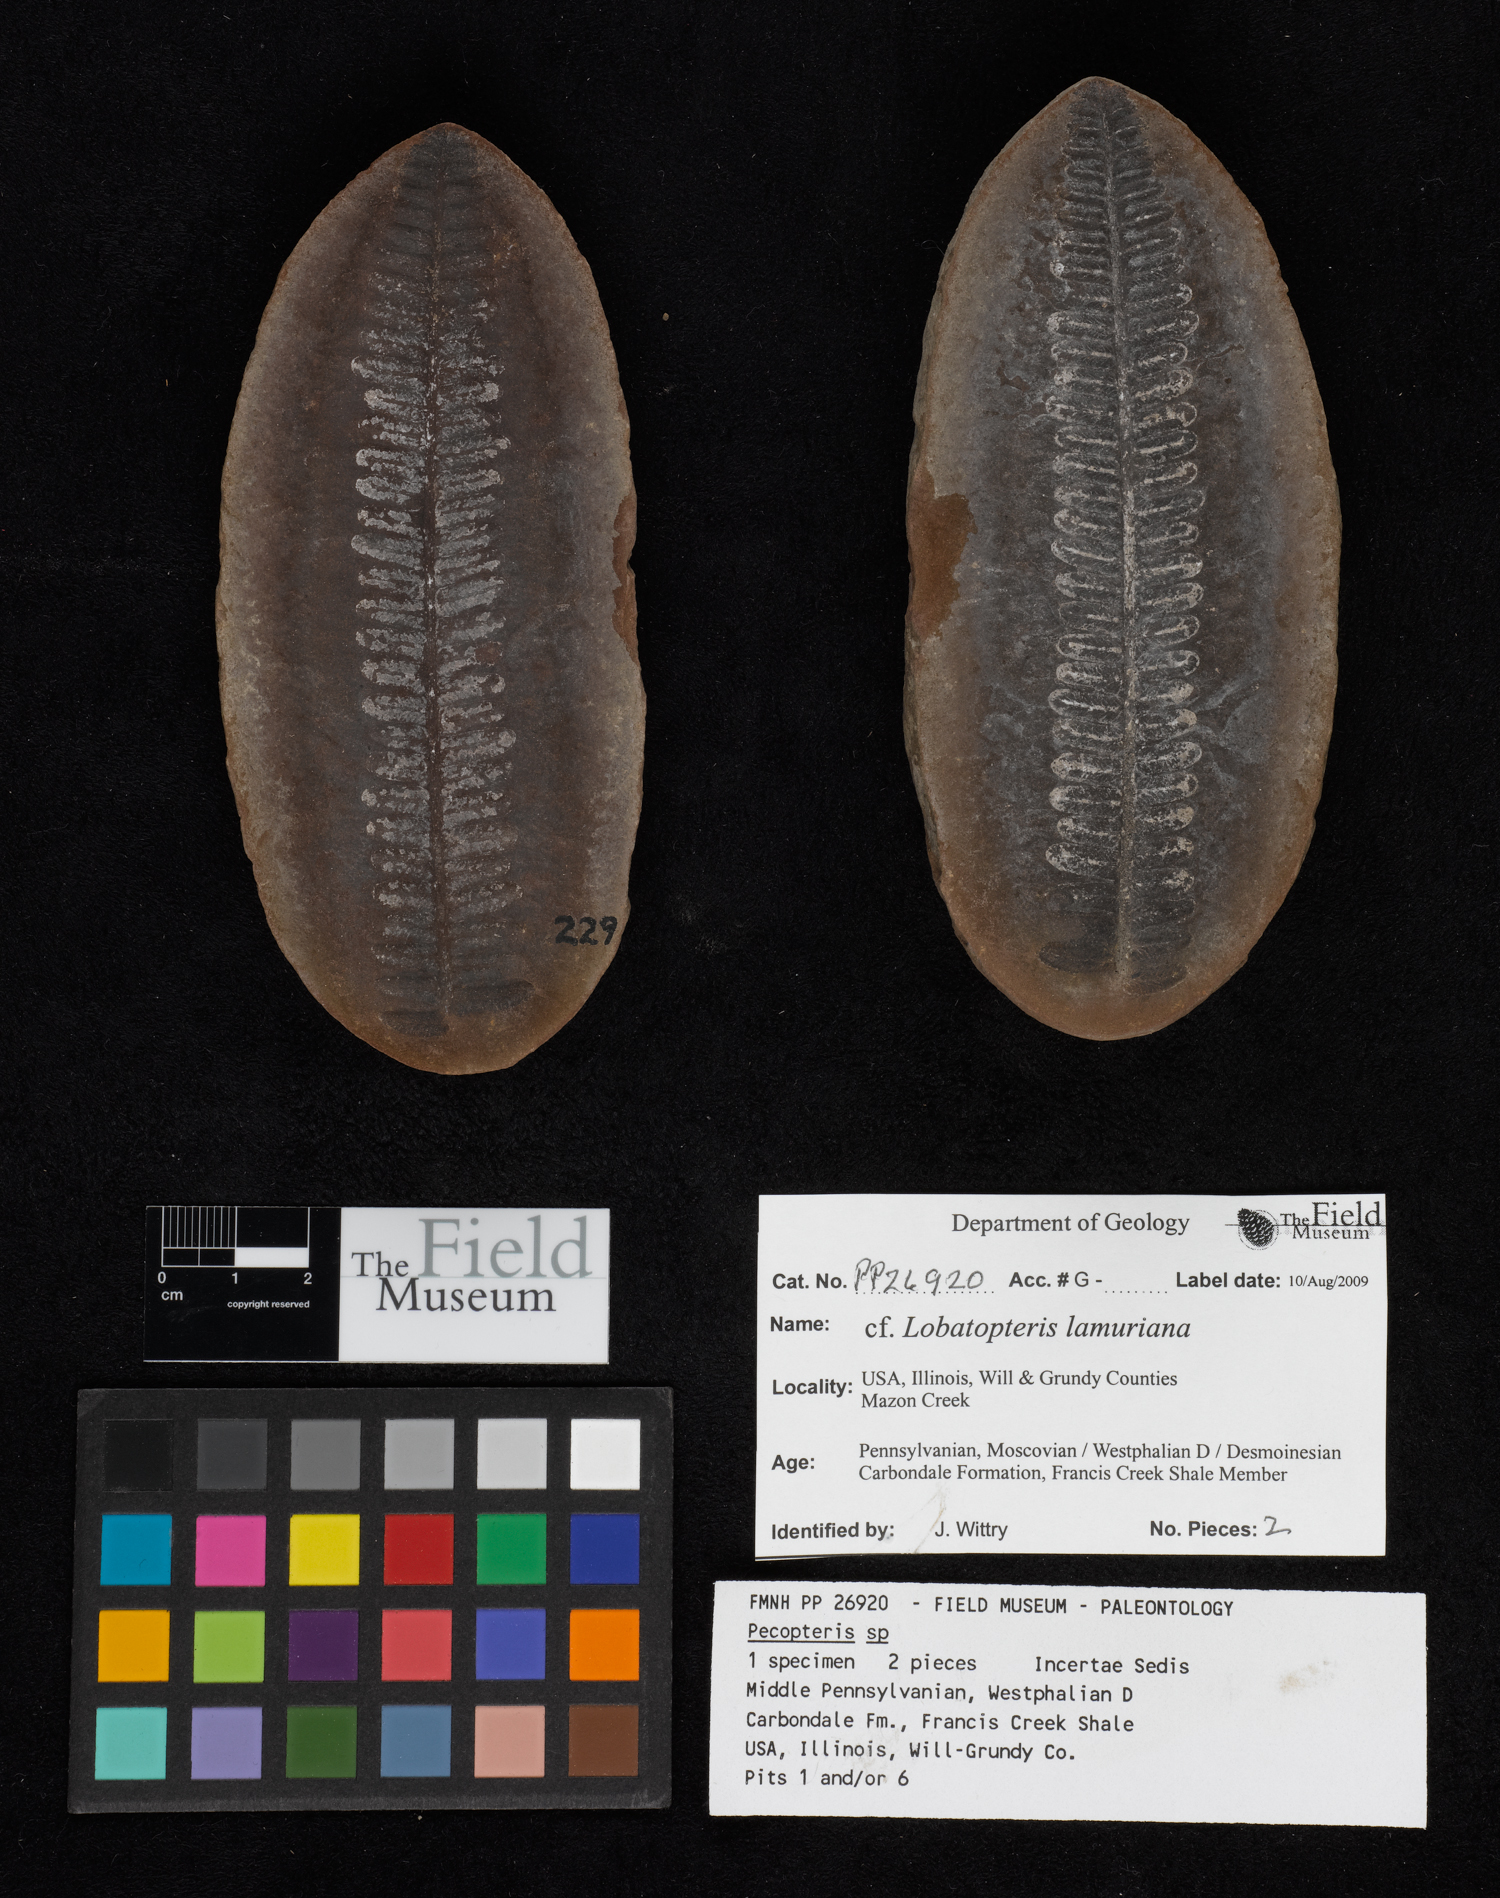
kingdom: Plantae
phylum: Tracheophyta
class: Polypodiopsida
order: Marattiales
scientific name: Marattiales
